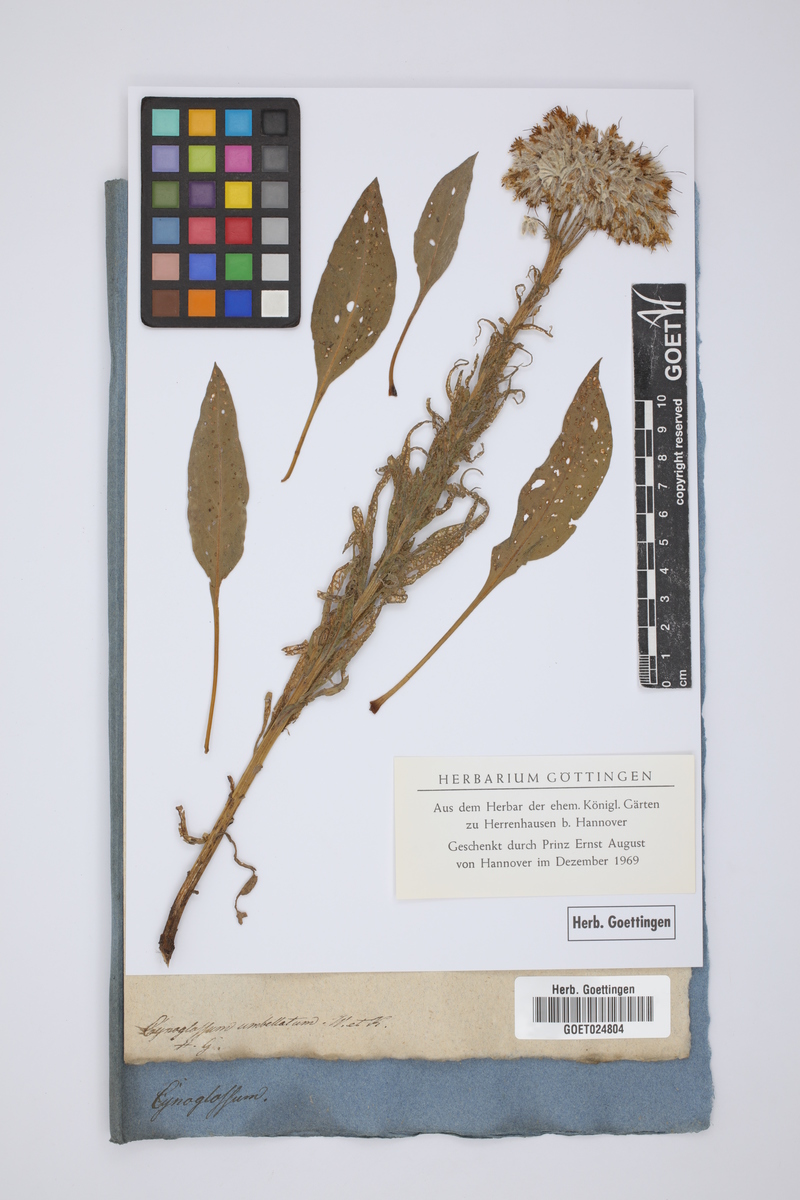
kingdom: Plantae
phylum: Tracheophyta
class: Magnoliopsida
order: Boraginales
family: Boraginaceae
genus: Rindera
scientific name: Rindera umbellata
